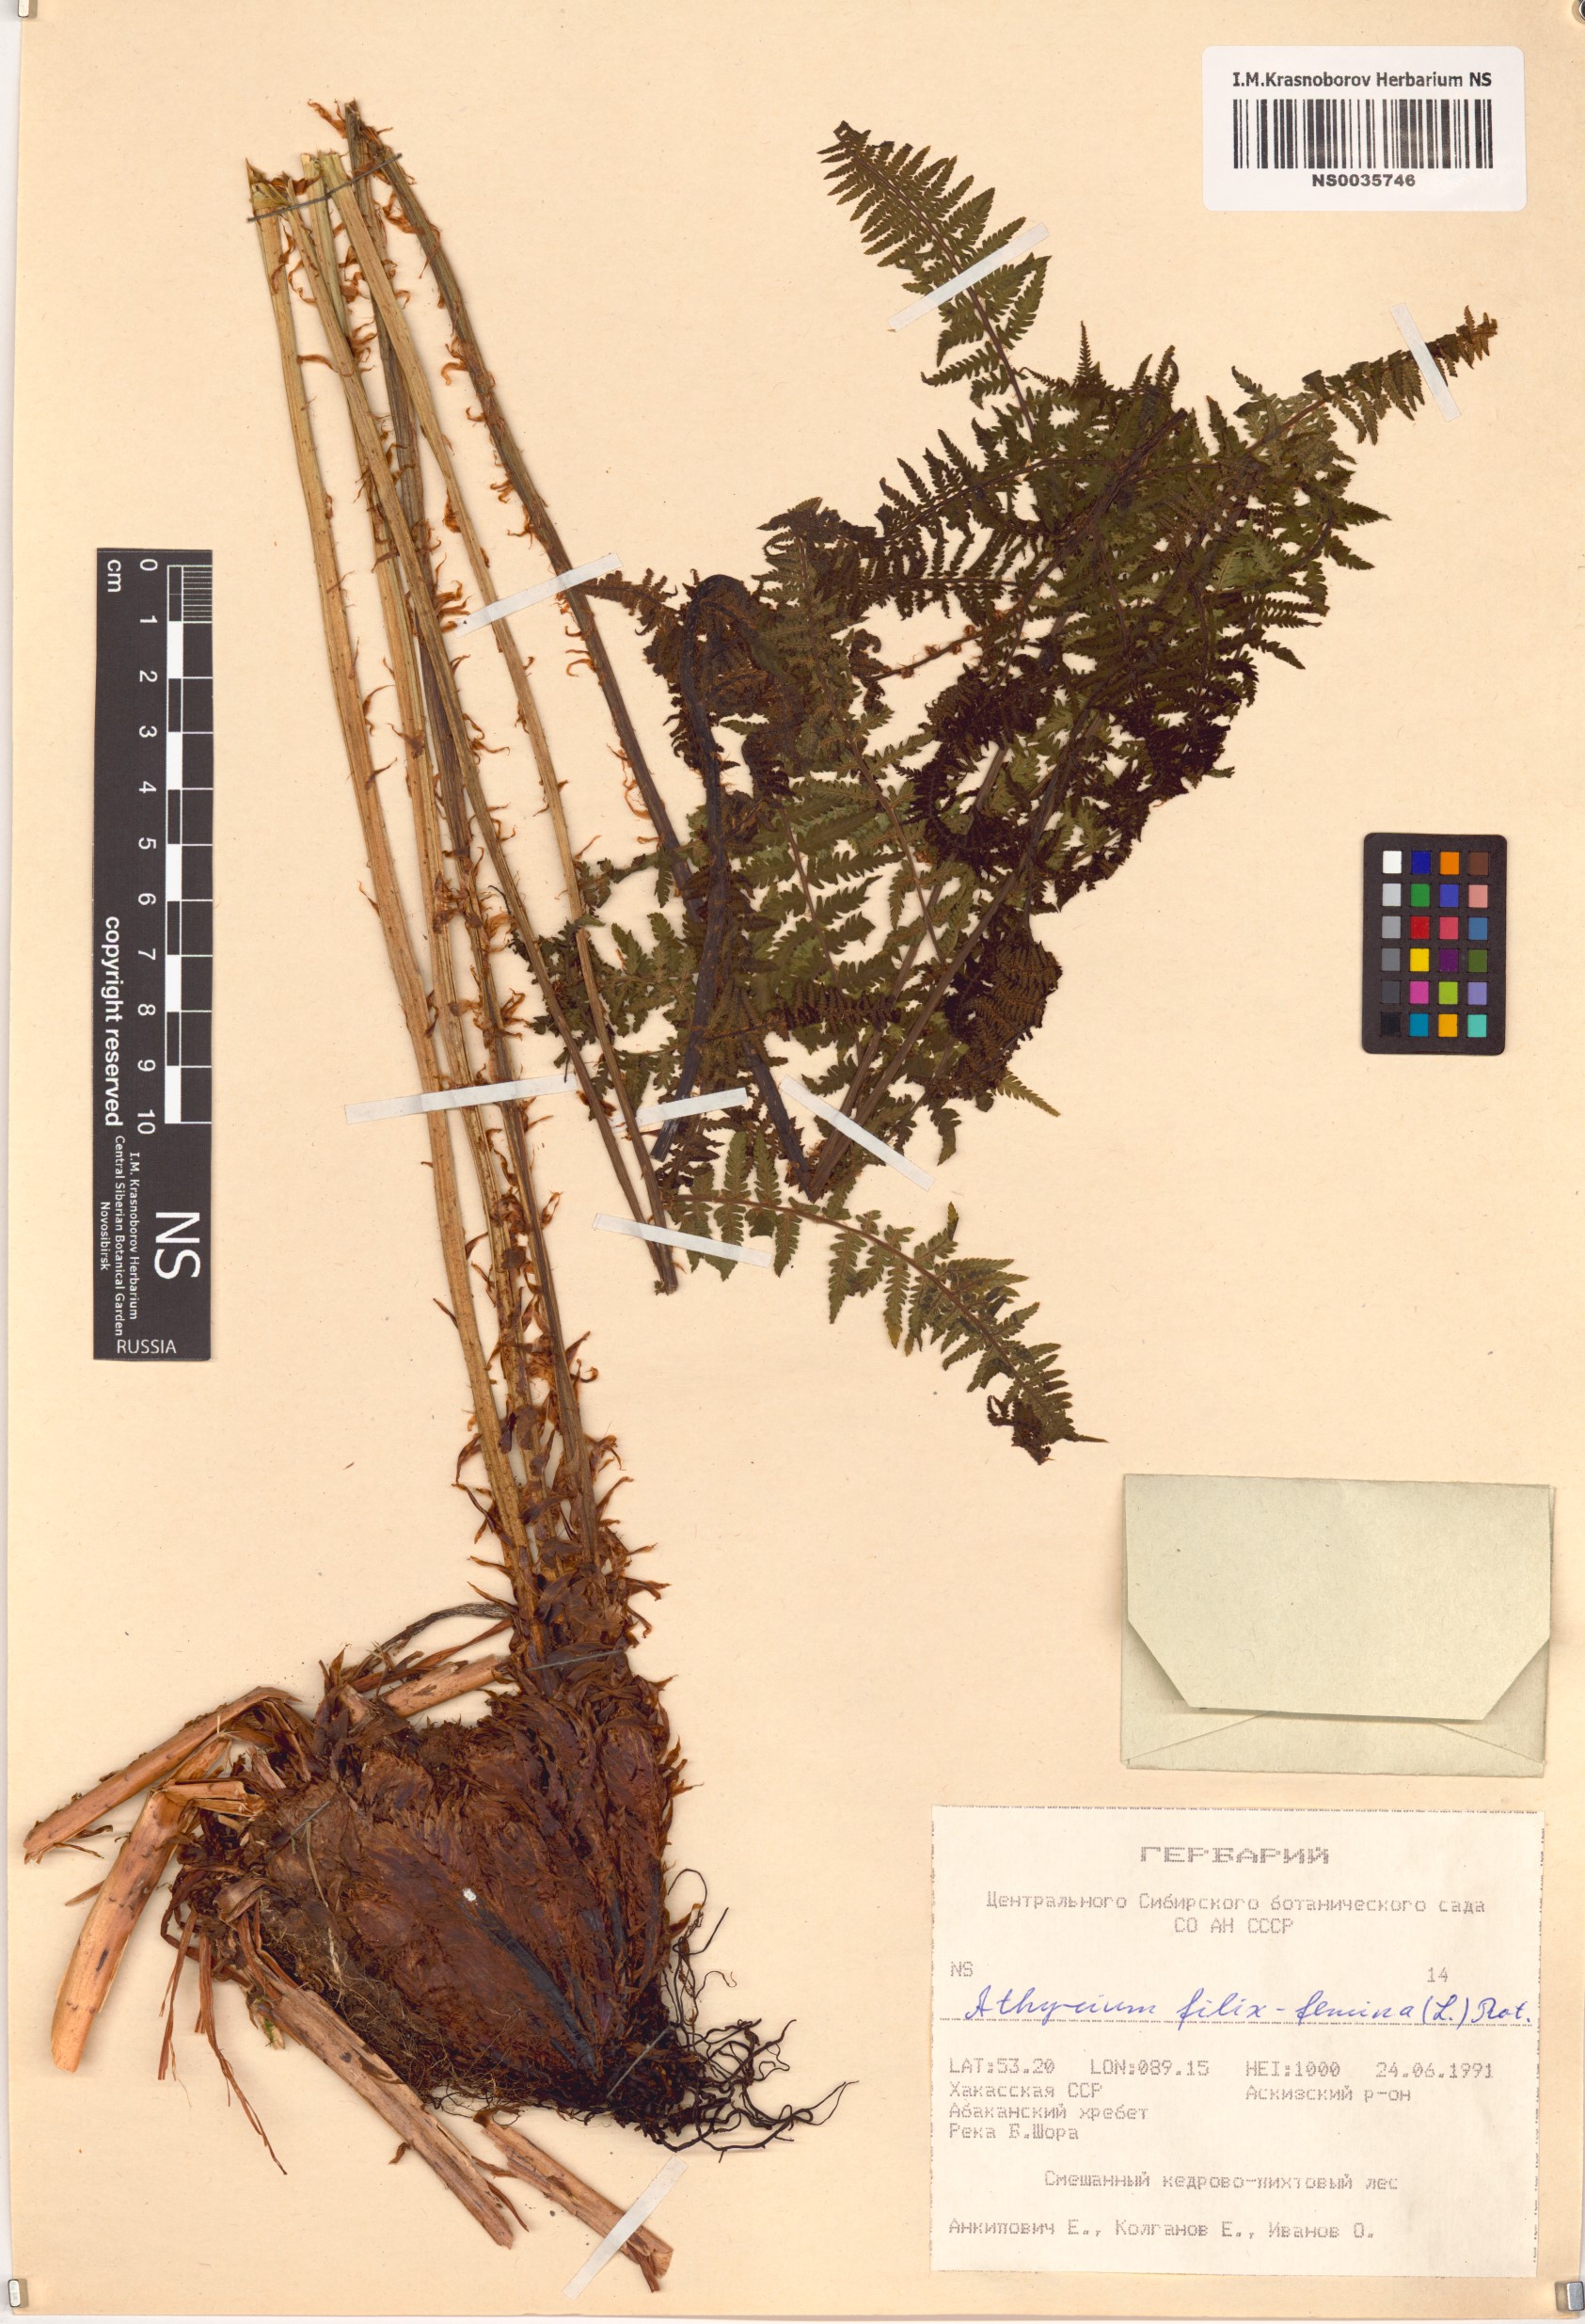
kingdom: Plantae
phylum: Tracheophyta
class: Polypodiopsida
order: Polypodiales
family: Athyriaceae
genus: Athyrium
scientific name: Athyrium filix-femina
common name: Lady fern
